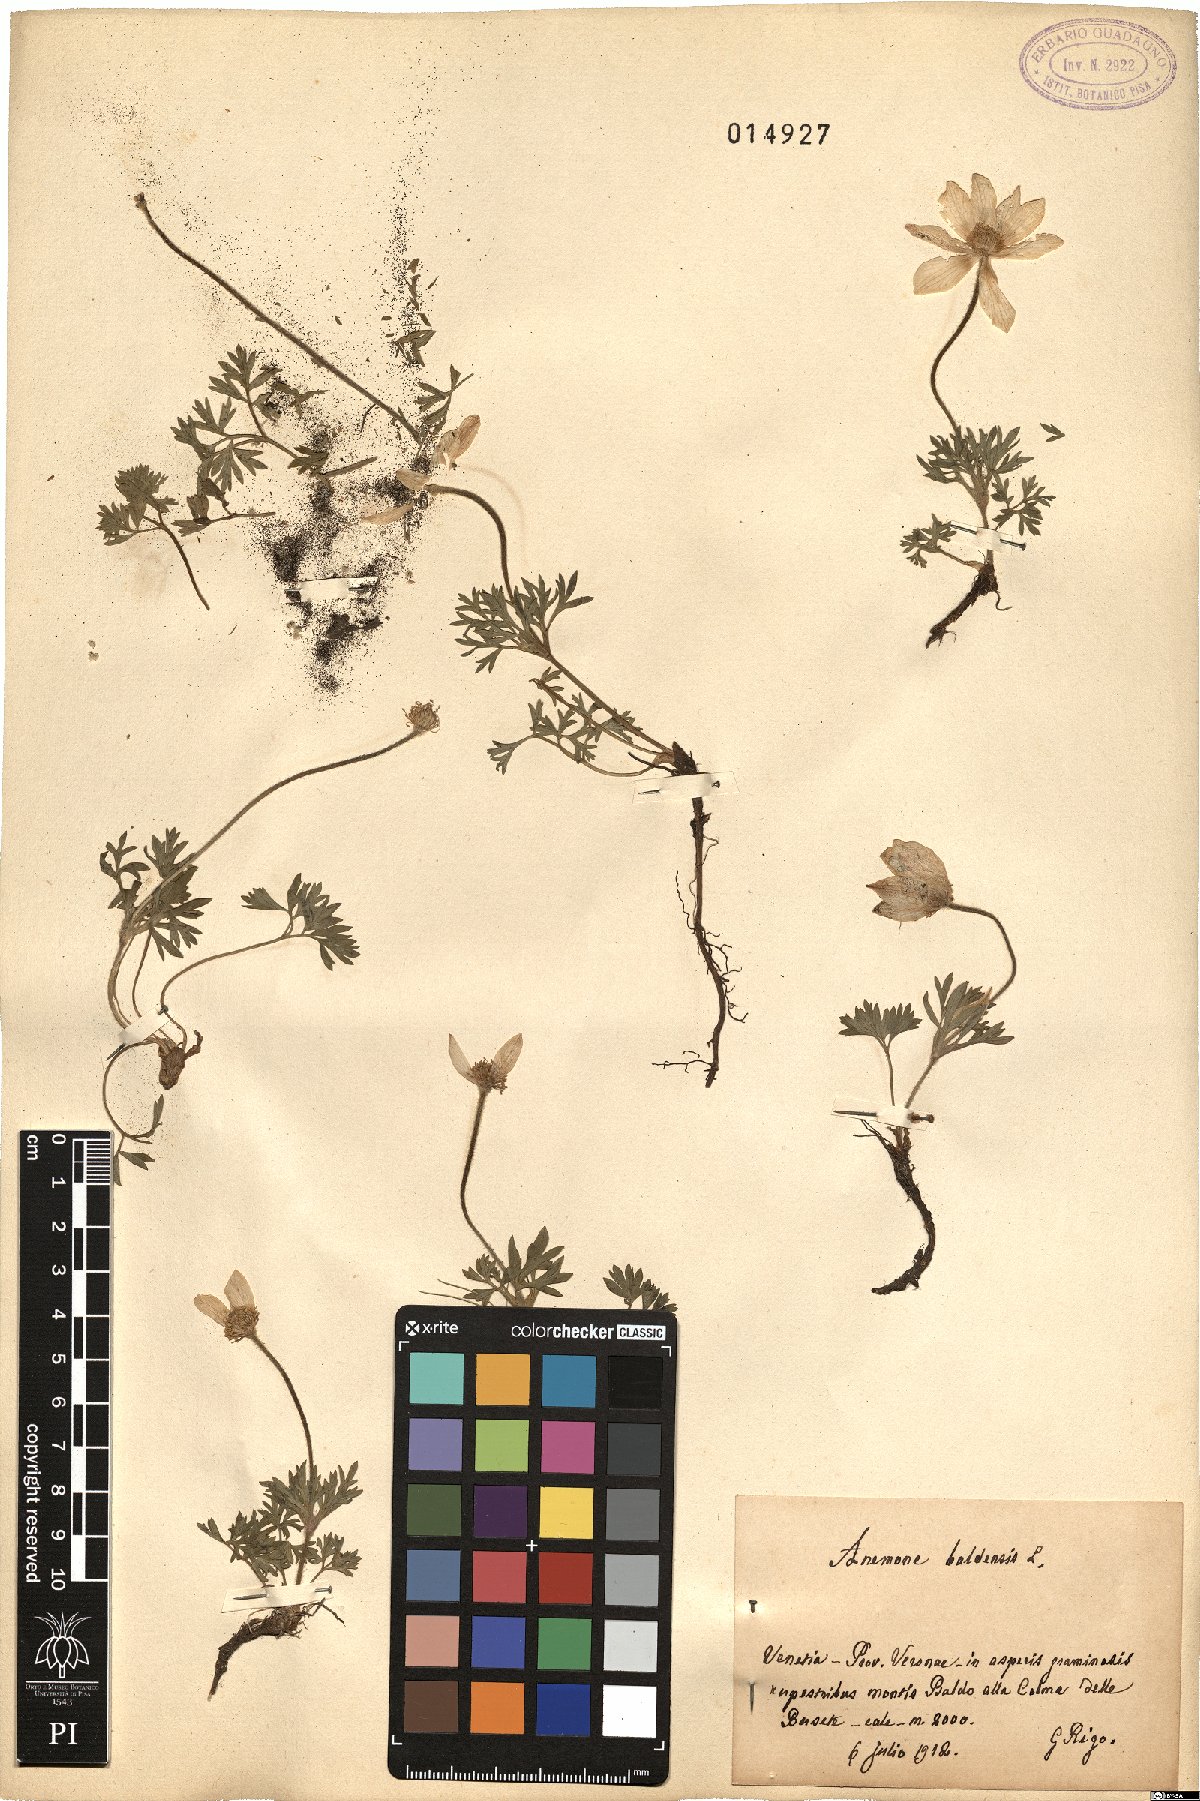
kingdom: Plantae
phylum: Tracheophyta
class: Magnoliopsida
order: Ranunculales
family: Ranunculaceae
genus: Anemone
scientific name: Anemone baldensis
